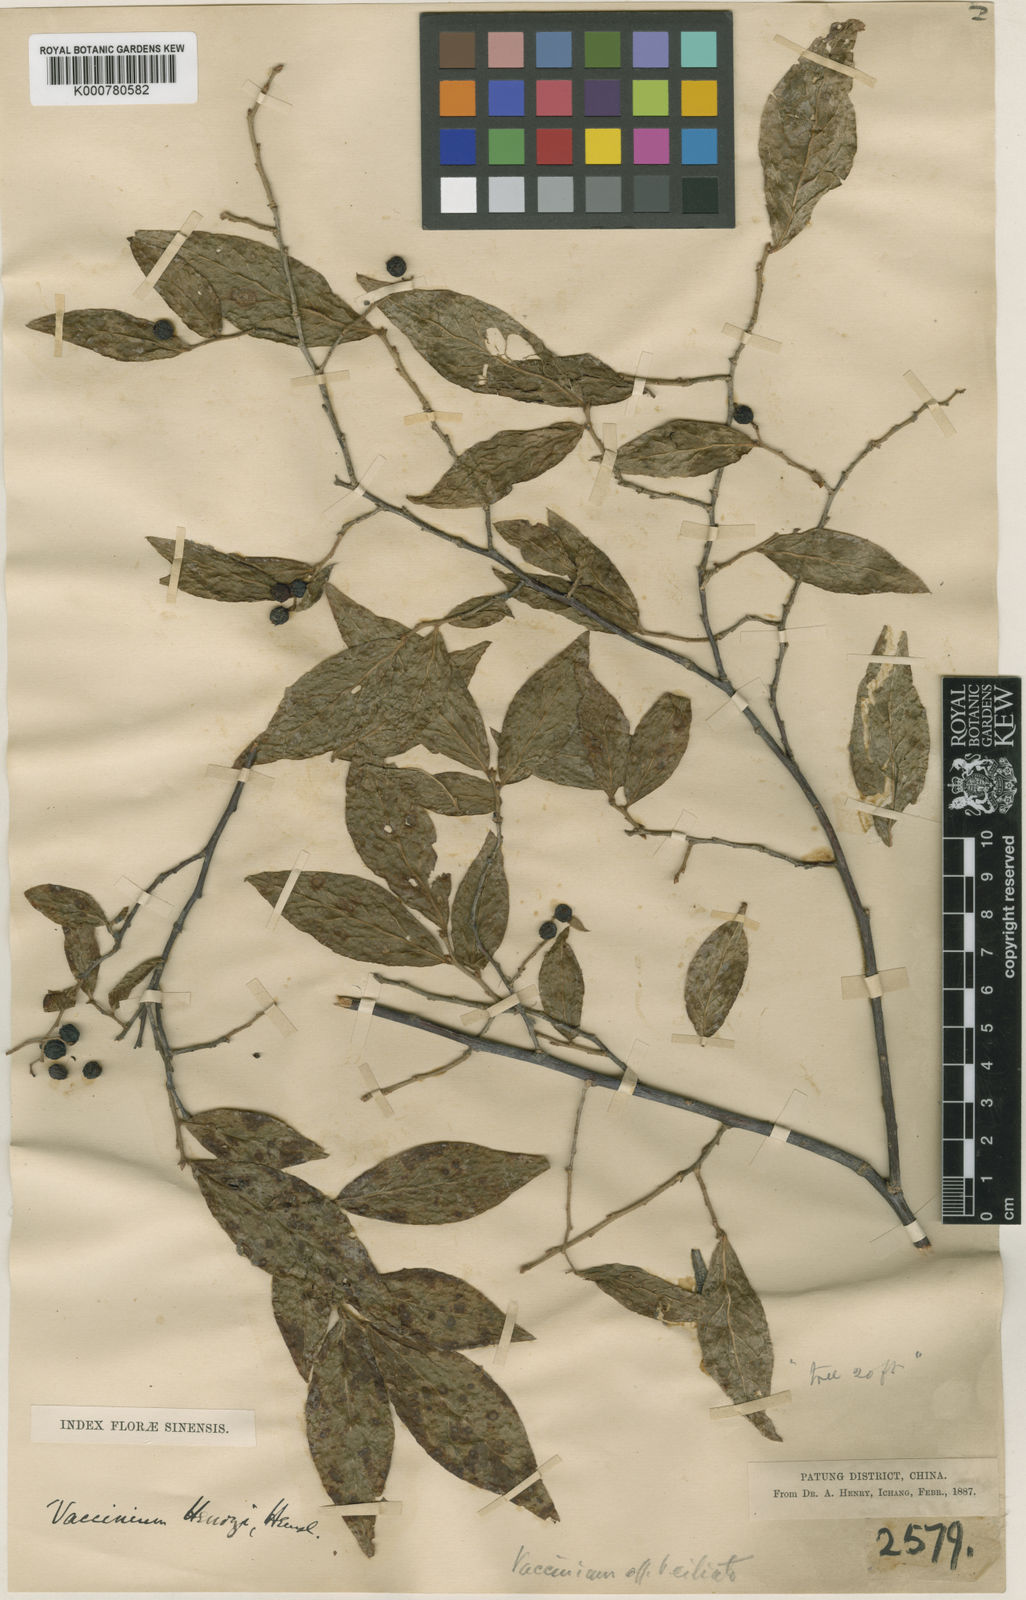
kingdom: Plantae
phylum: Tracheophyta
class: Magnoliopsida
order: Ericales
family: Ericaceae
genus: Vaccinium
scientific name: Vaccinium henryi
